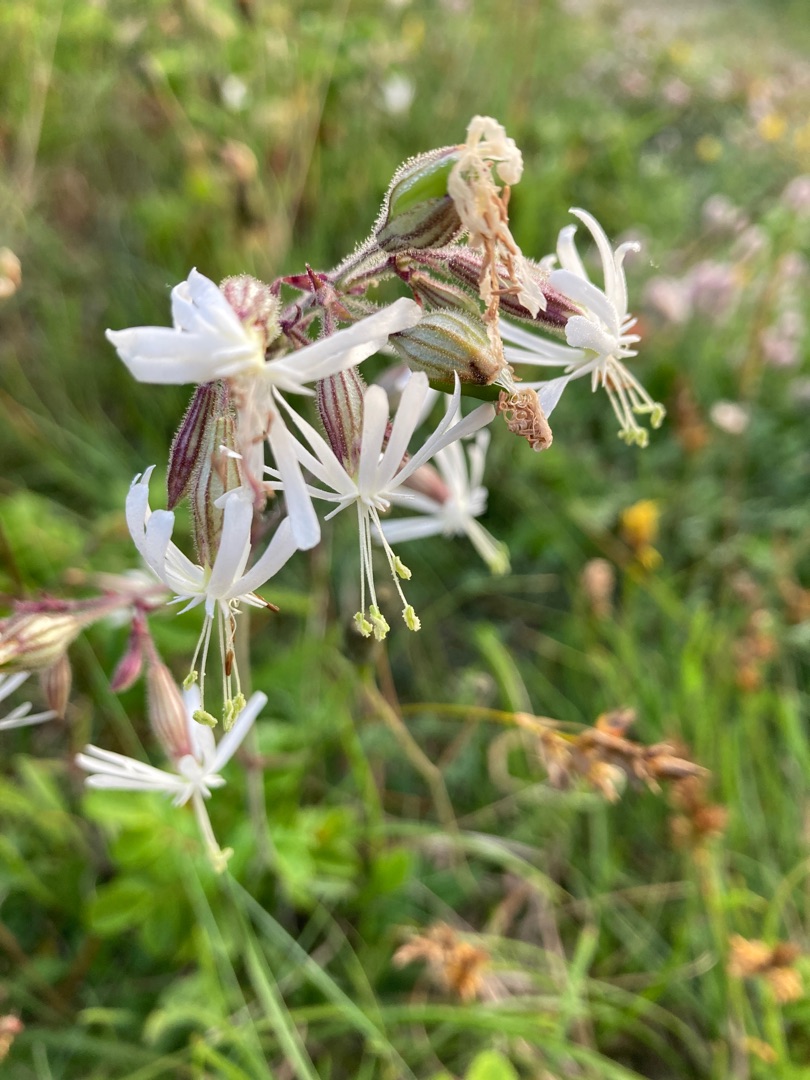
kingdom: Plantae
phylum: Tracheophyta
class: Magnoliopsida
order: Caryophyllales
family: Caryophyllaceae
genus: Silene
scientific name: Silene nutans
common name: Nikkende limurt
